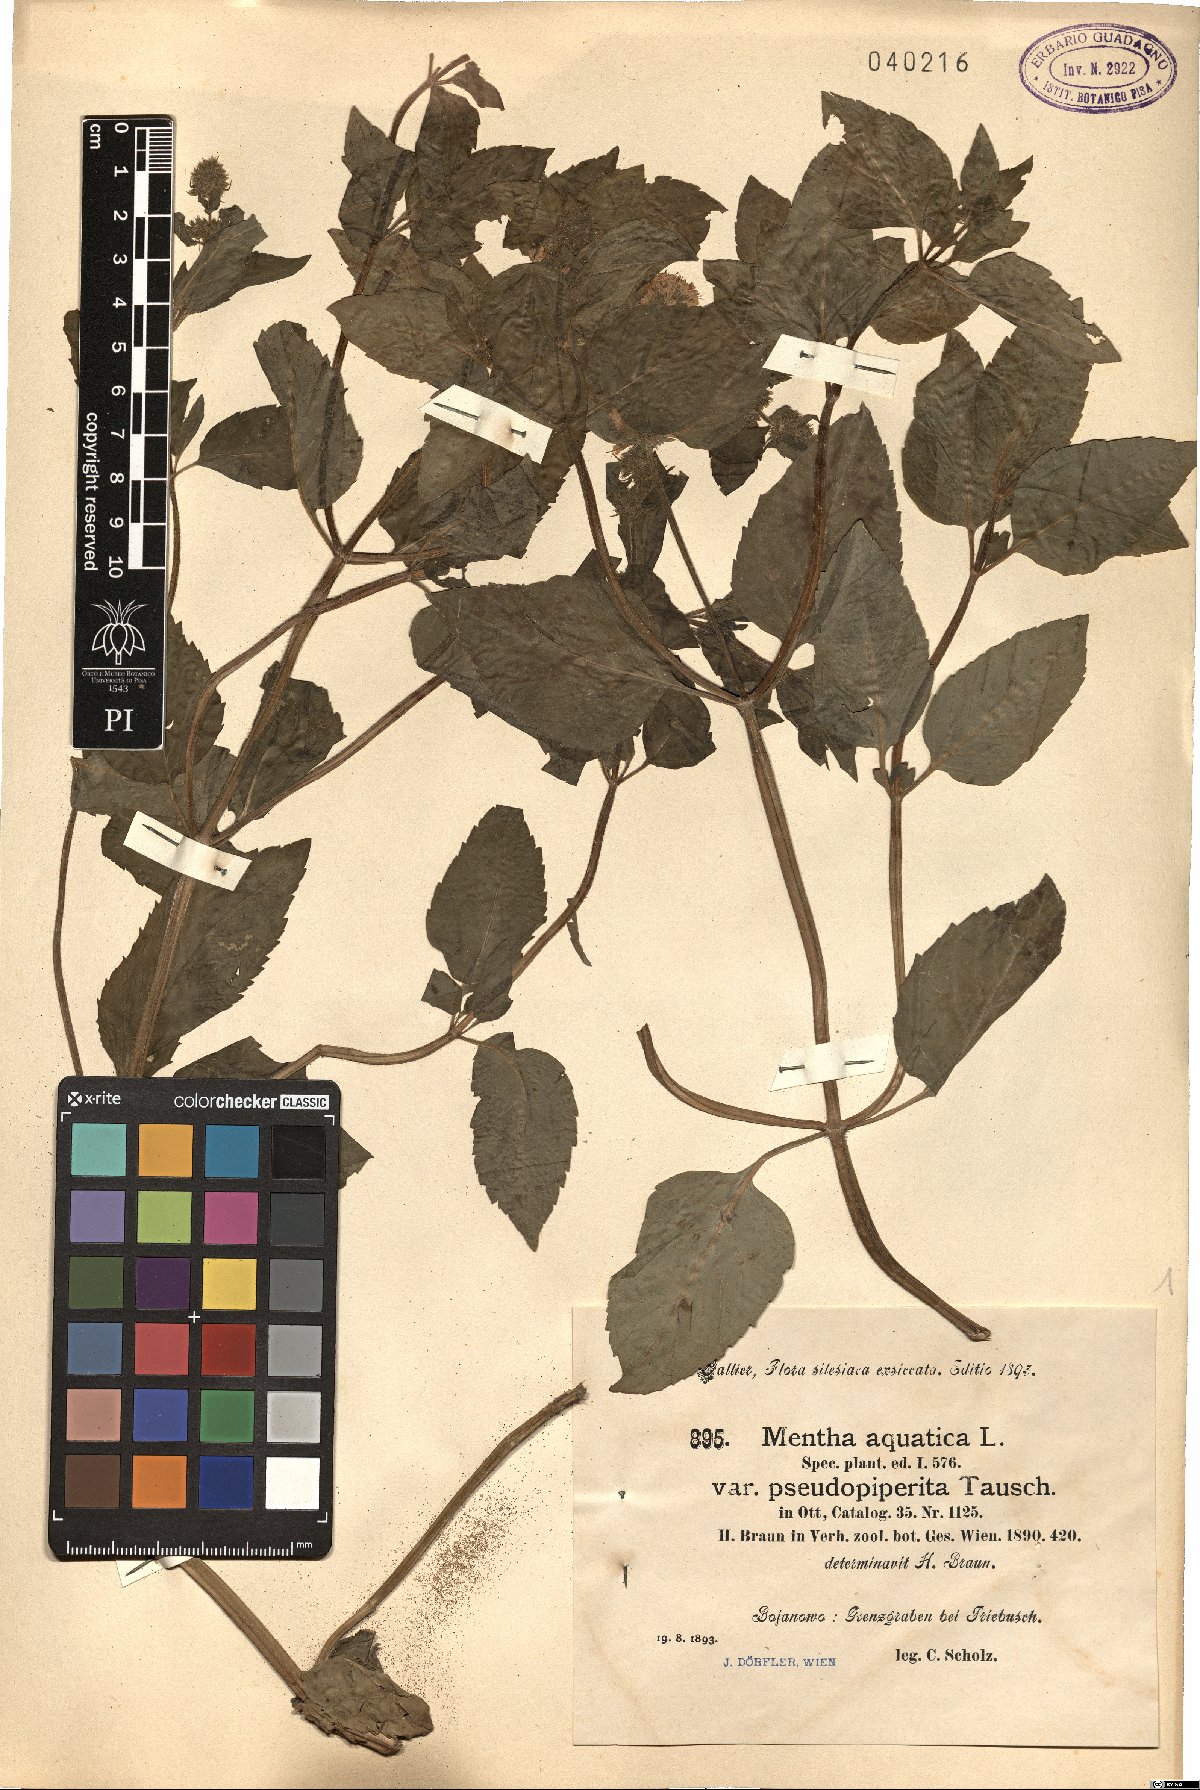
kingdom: Plantae
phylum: Tracheophyta
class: Magnoliopsida
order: Lamiales
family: Lamiaceae
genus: Mentha
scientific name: Mentha aquatica
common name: Water mint
